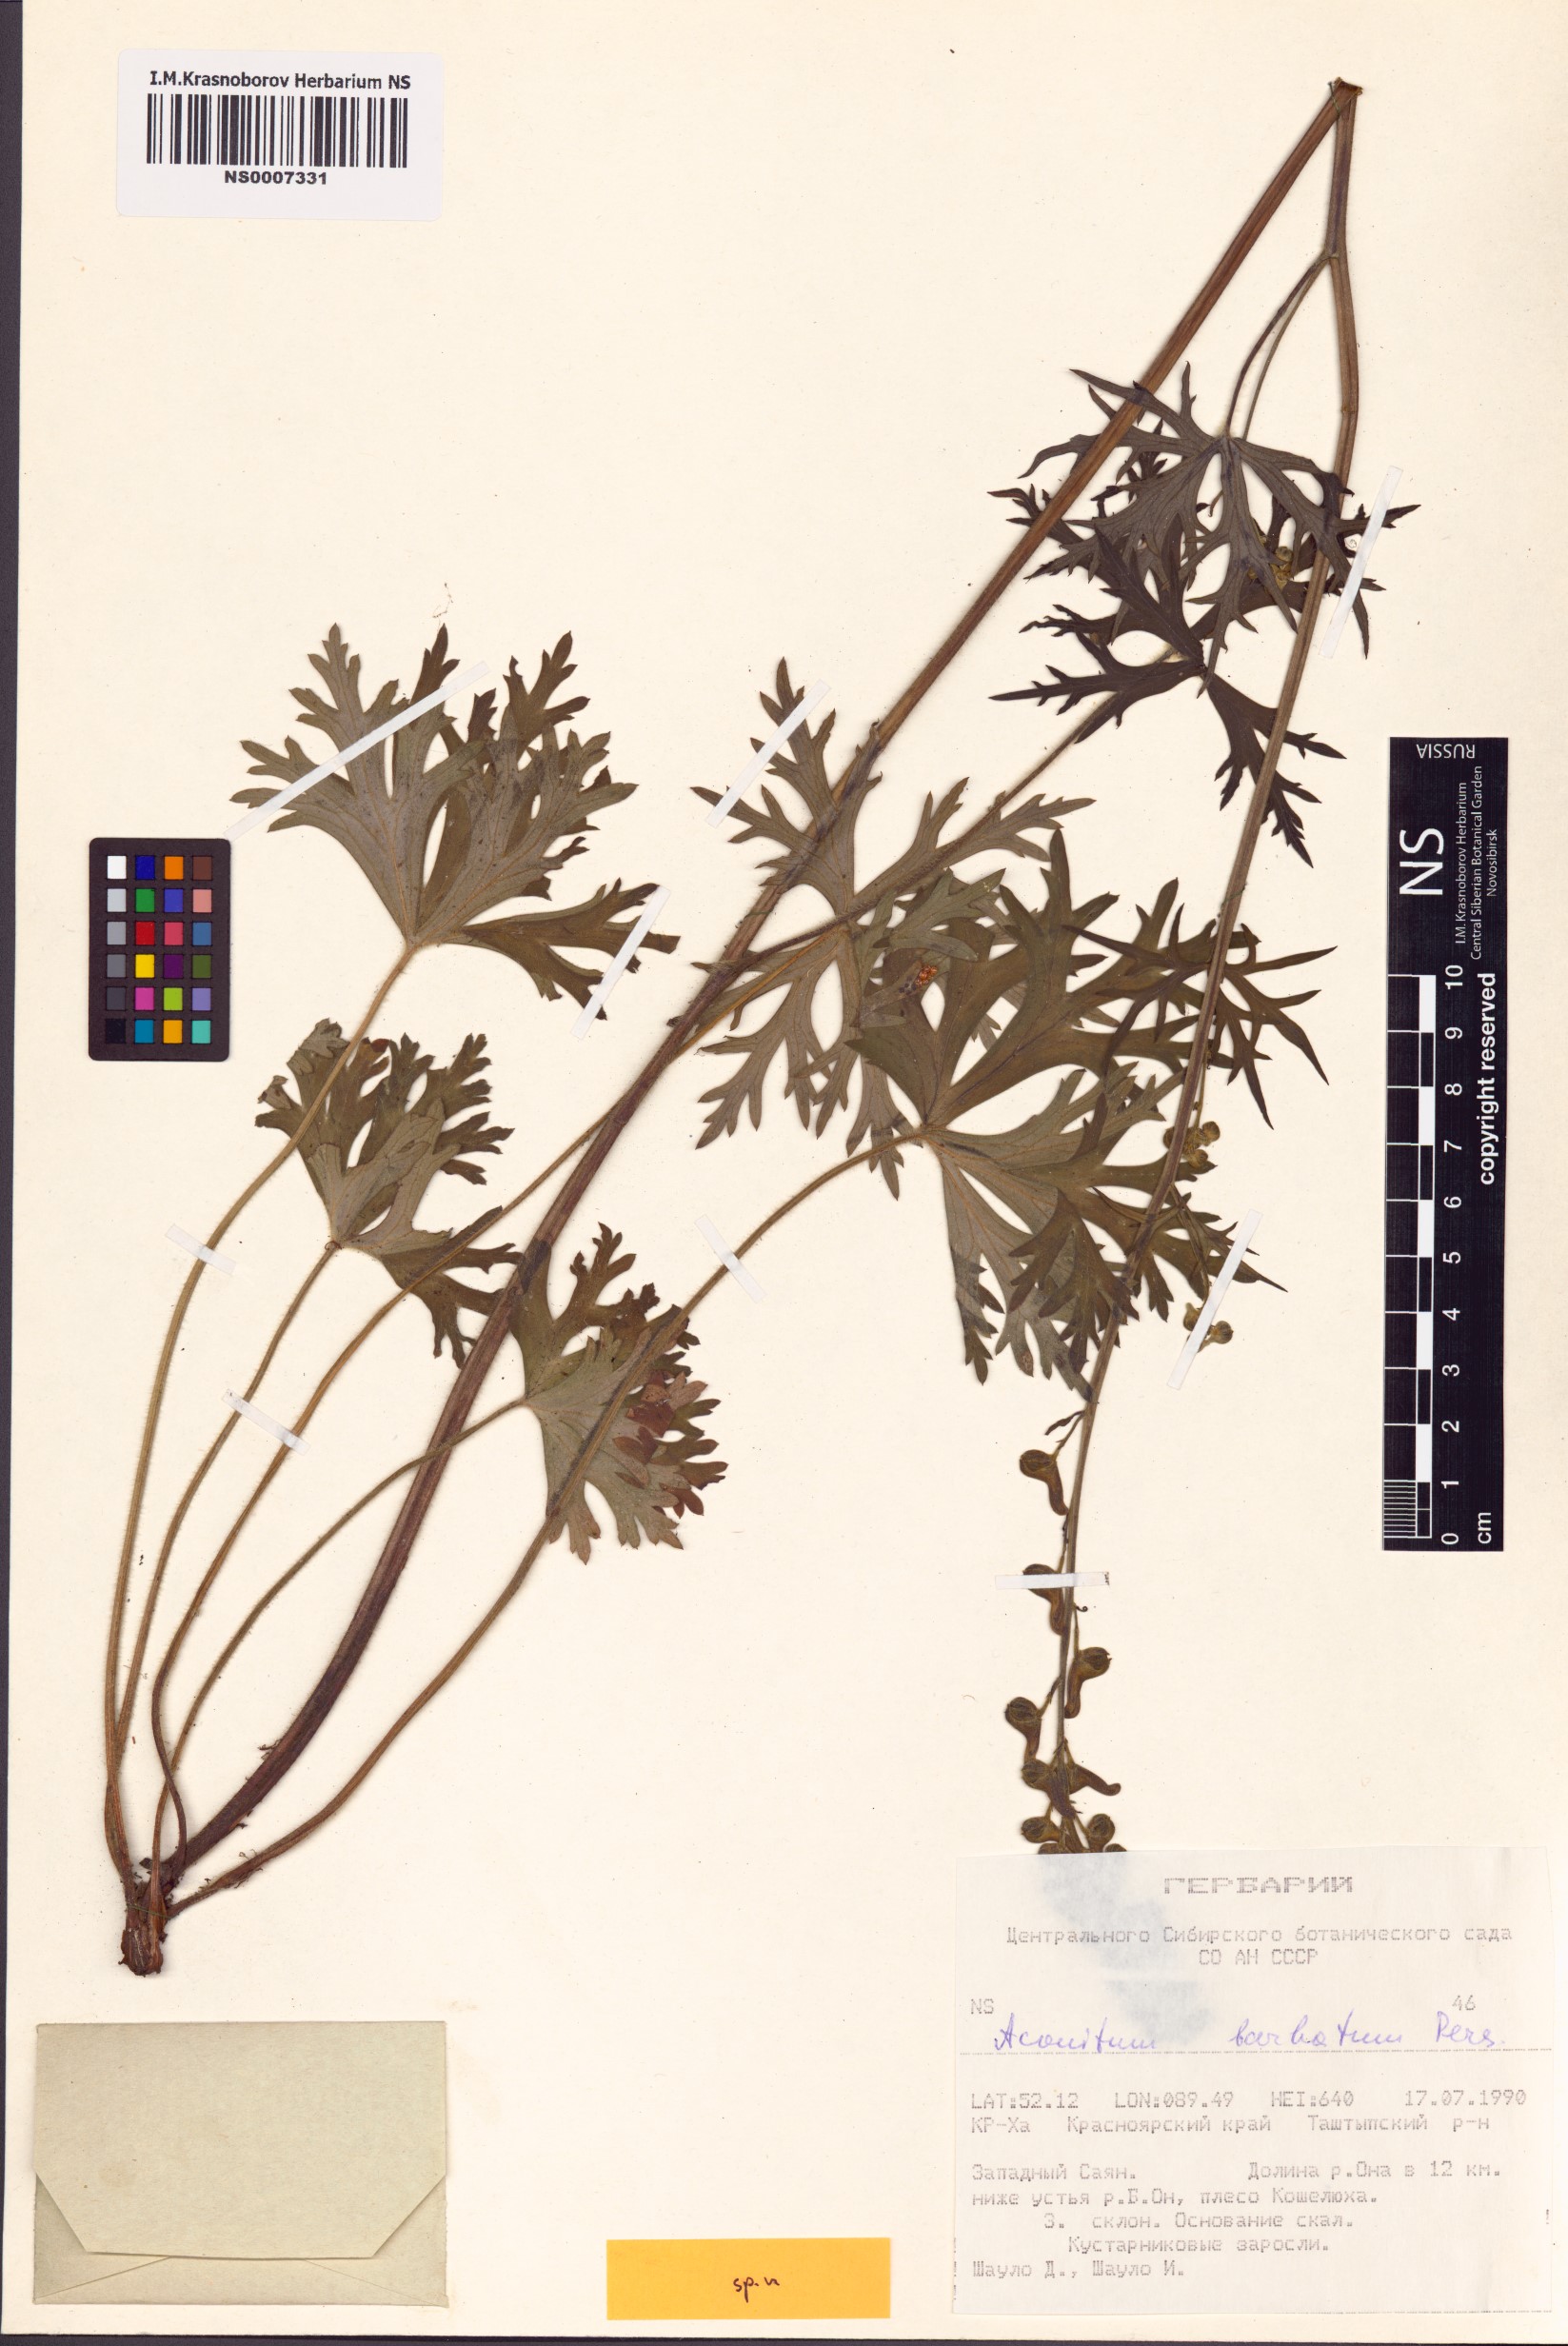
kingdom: Plantae
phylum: Tracheophyta
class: Magnoliopsida
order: Ranunculales
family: Ranunculaceae
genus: Aconitum
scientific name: Aconitum barbatum
